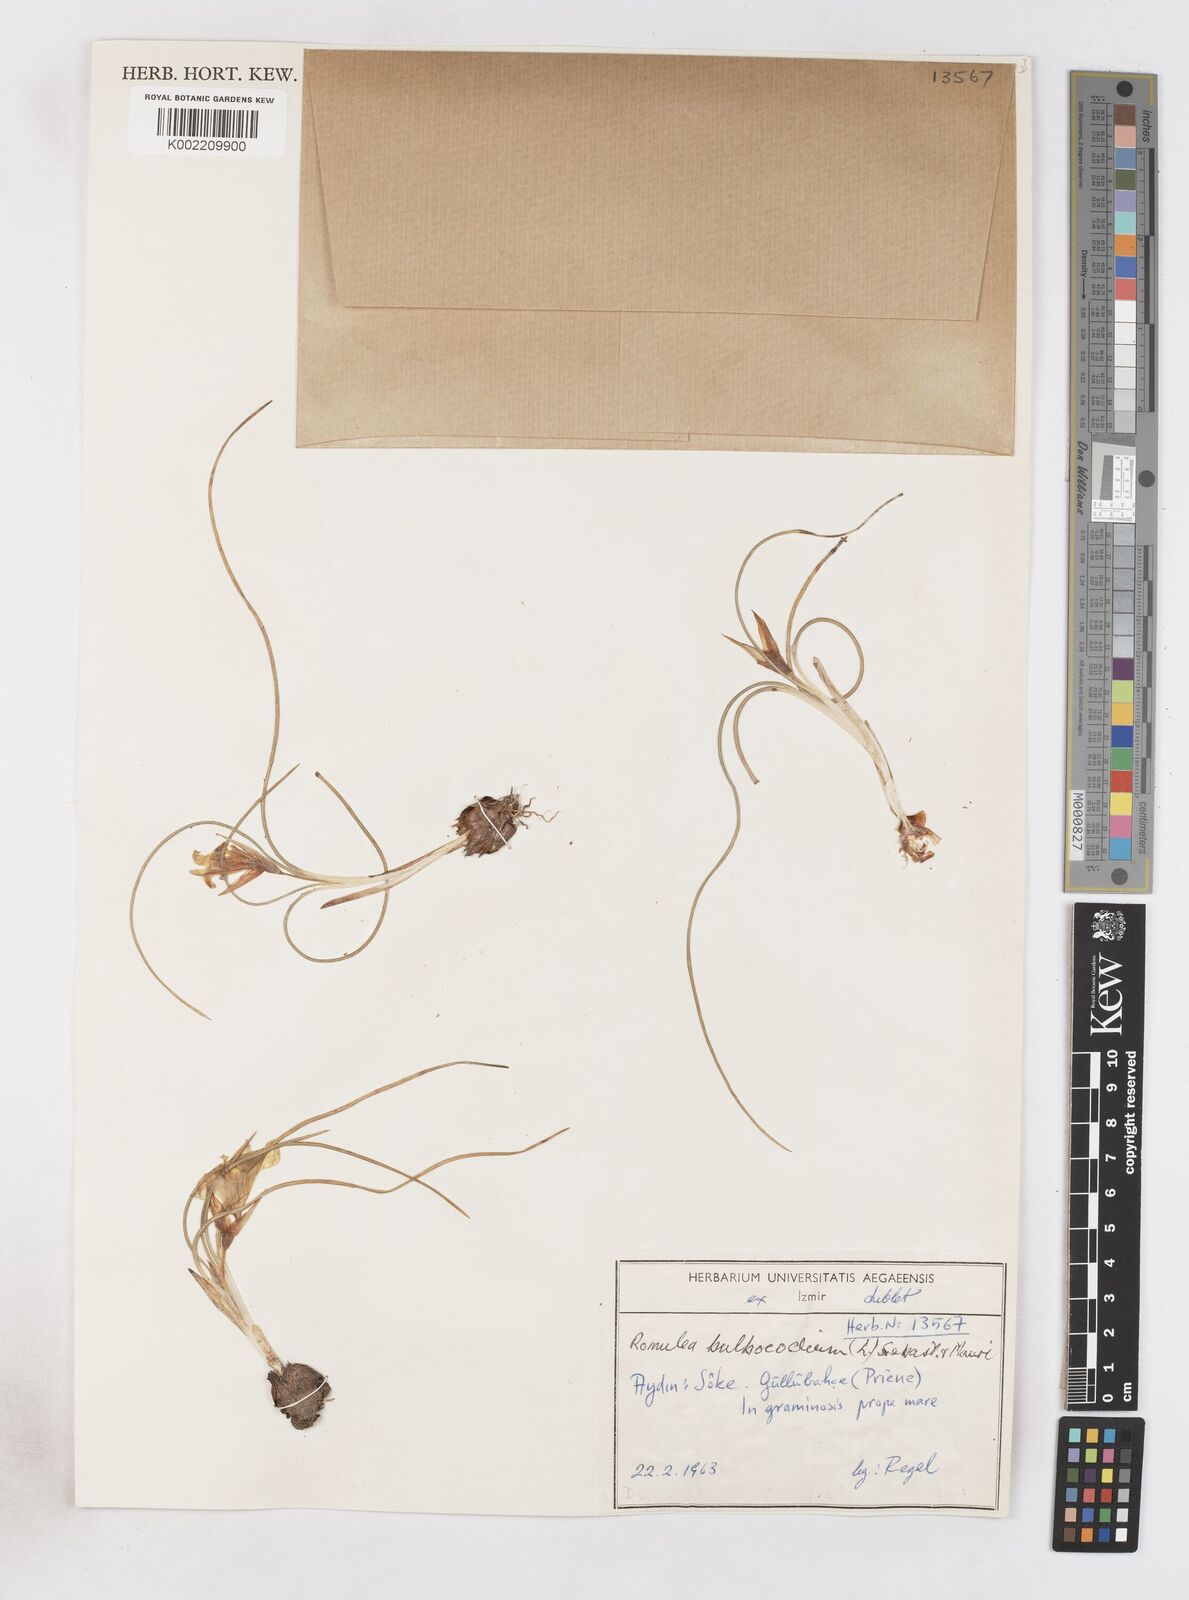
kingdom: Plantae
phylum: Tracheophyta
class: Liliopsida
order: Asparagales
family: Iridaceae
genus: Romulea
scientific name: Romulea bulbocodium
